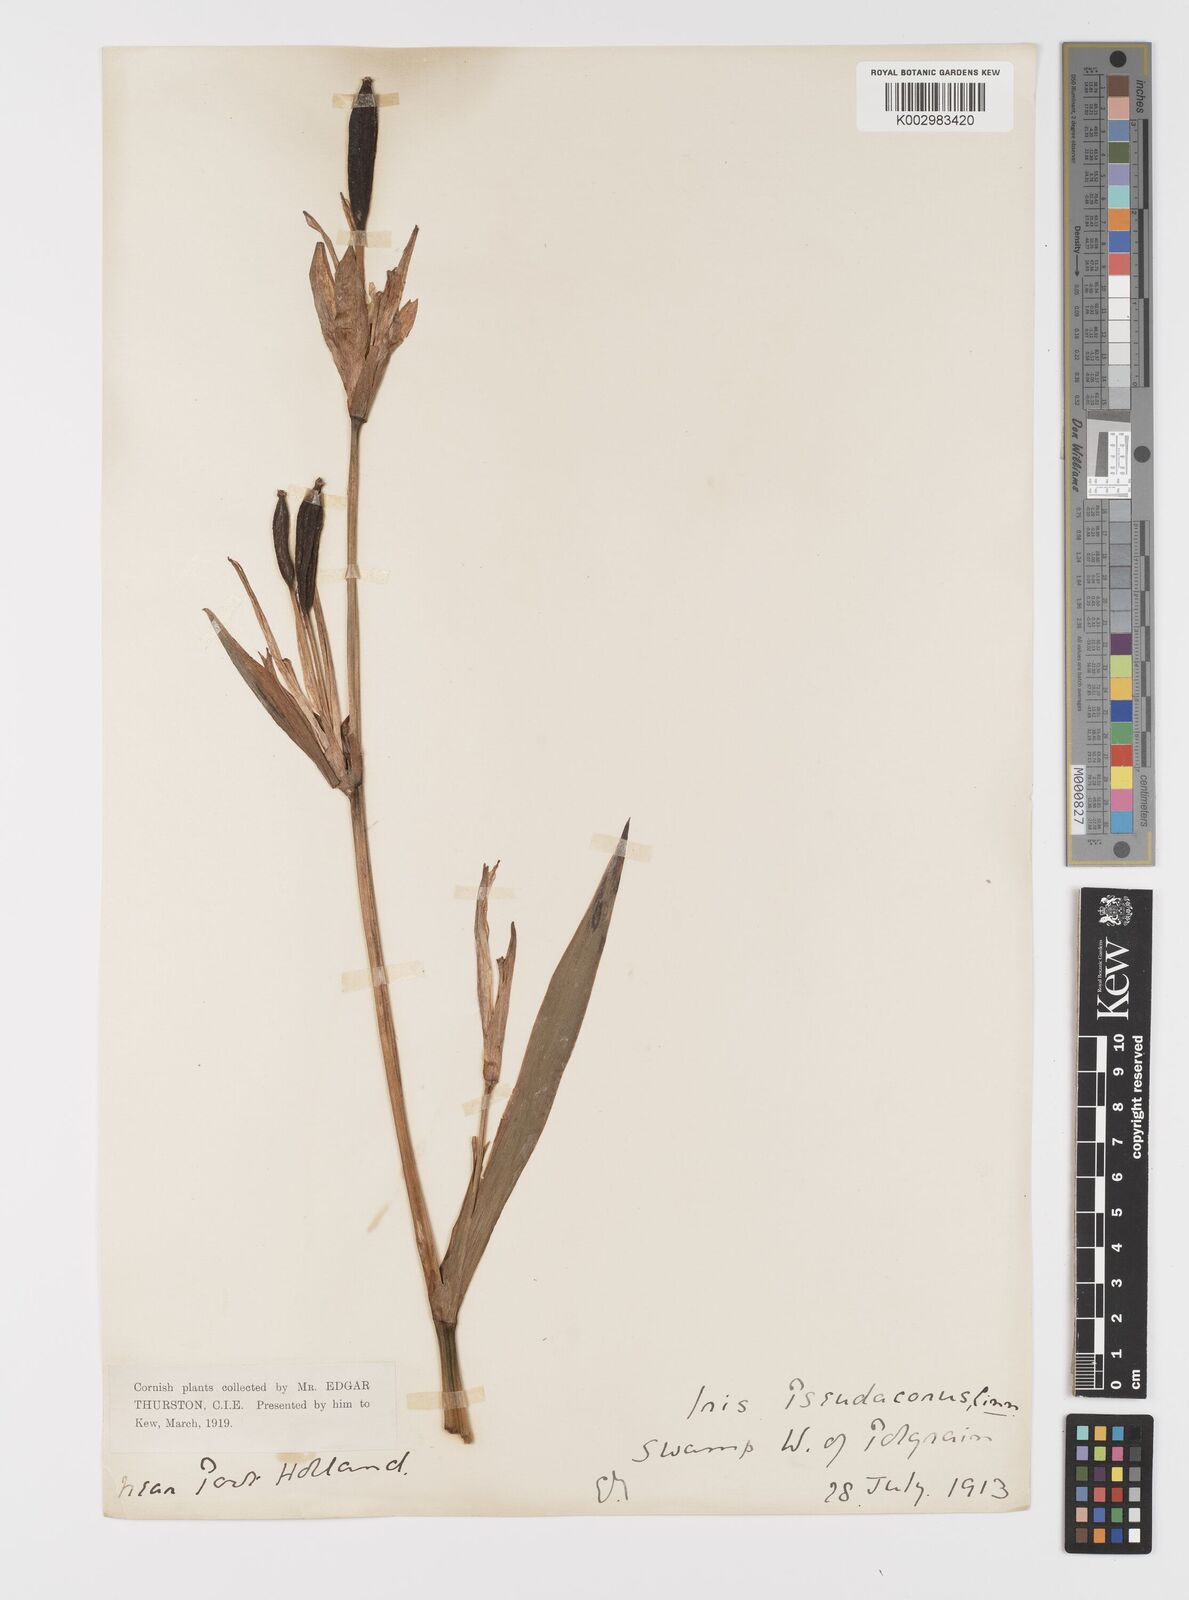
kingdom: Plantae
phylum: Tracheophyta
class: Liliopsida
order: Asparagales
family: Iridaceae
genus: Iris
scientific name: Iris pseudacorus
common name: Yellow flag
